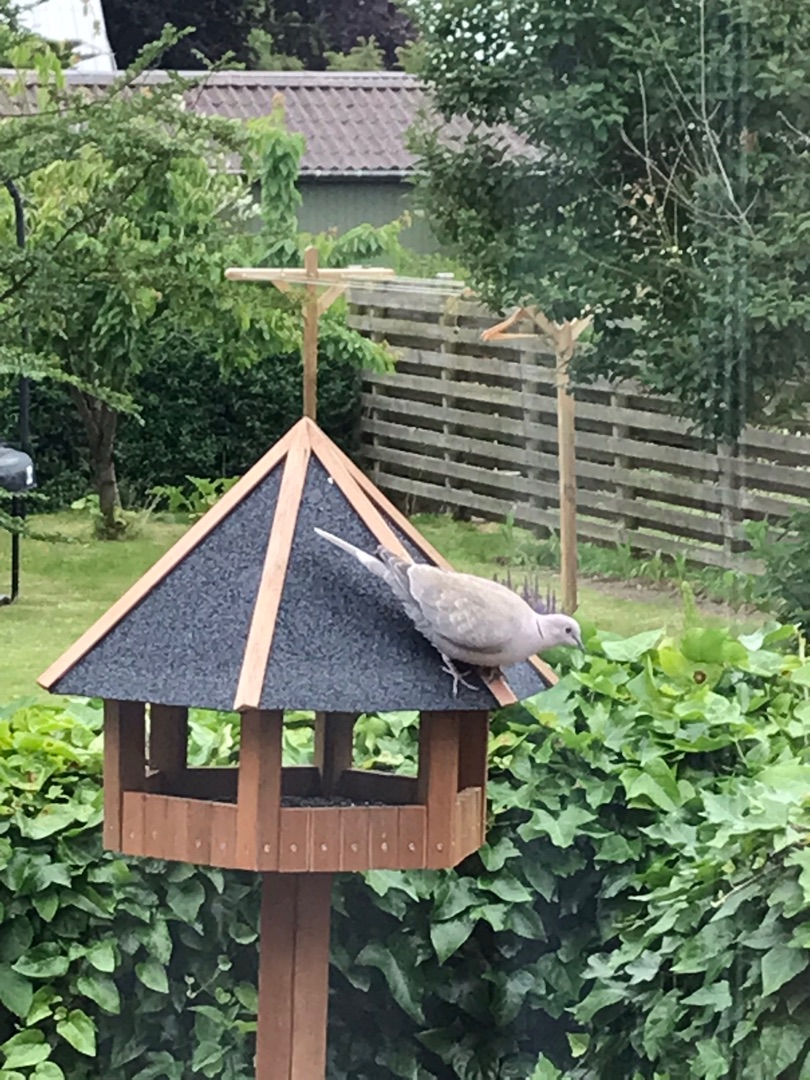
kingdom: Animalia
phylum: Chordata
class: Aves
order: Columbiformes
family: Columbidae
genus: Streptopelia
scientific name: Streptopelia decaocto
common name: Tyrkerdue
